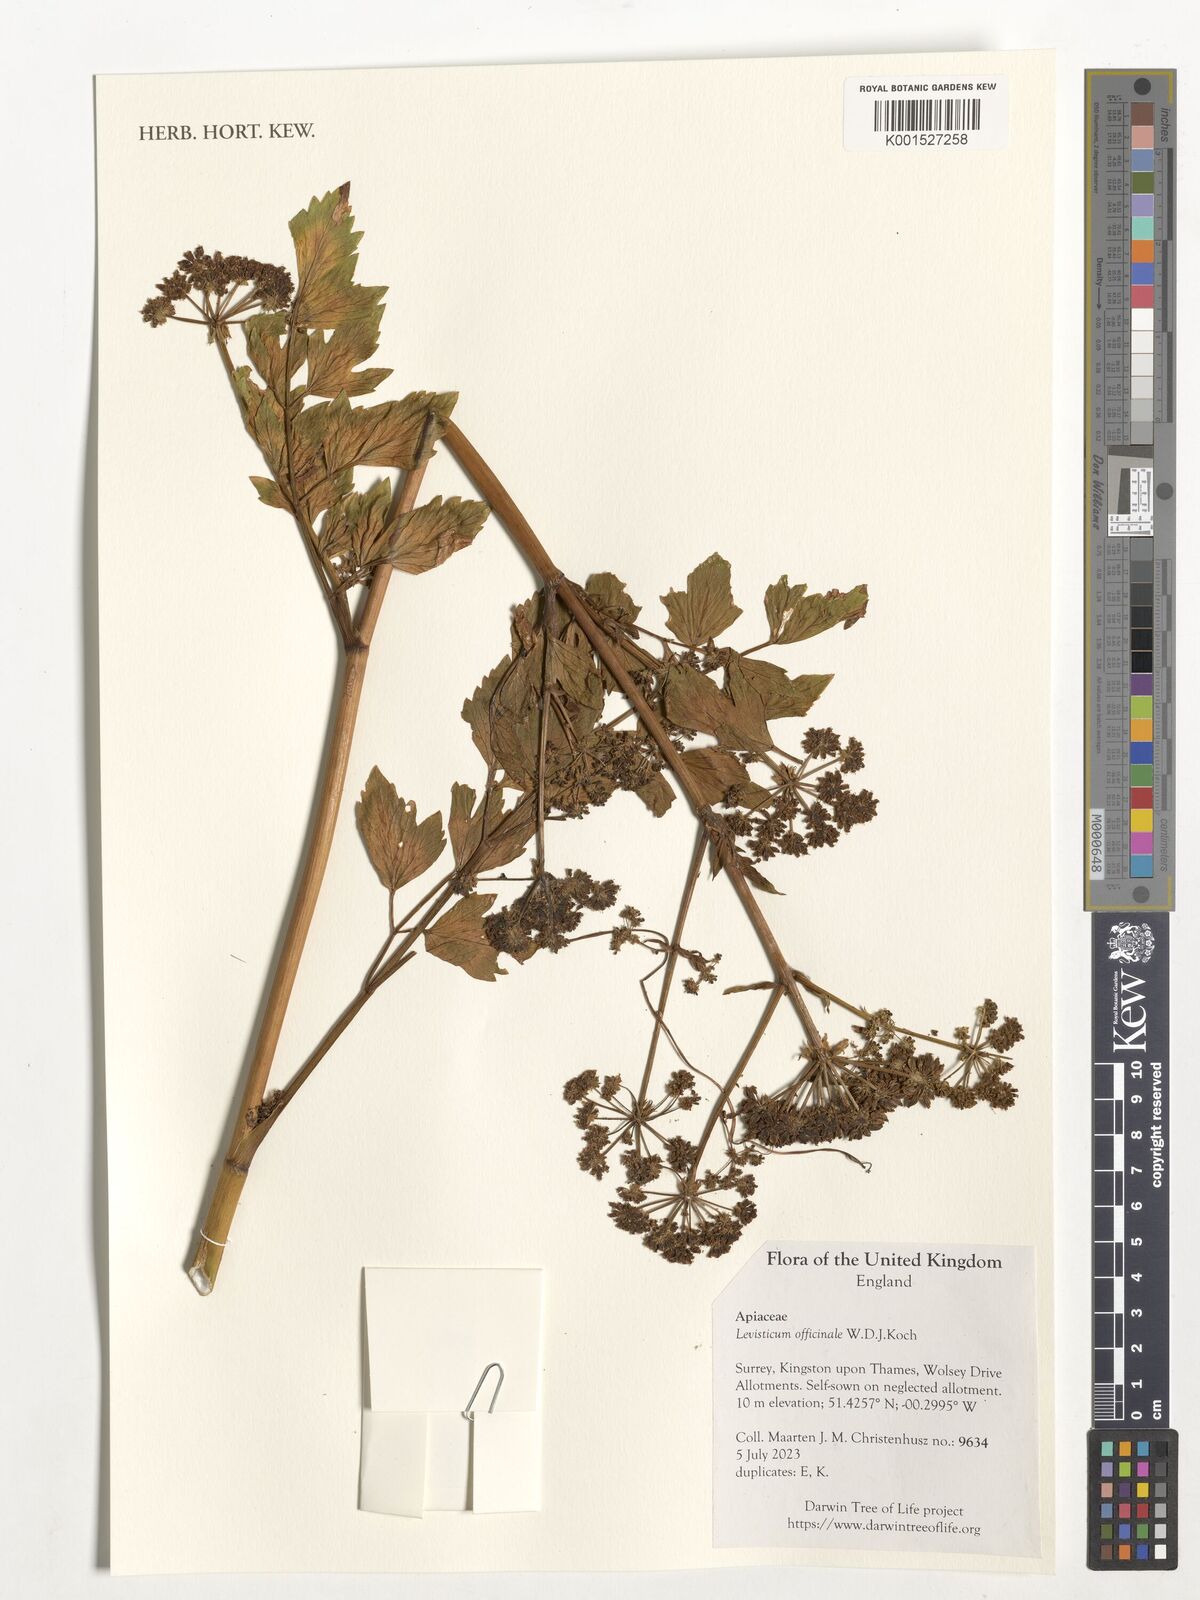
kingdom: Plantae
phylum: Tracheophyta
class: Magnoliopsida
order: Apiales
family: Apiaceae
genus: Levisticum
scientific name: Levisticum officinale
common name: Lovage
